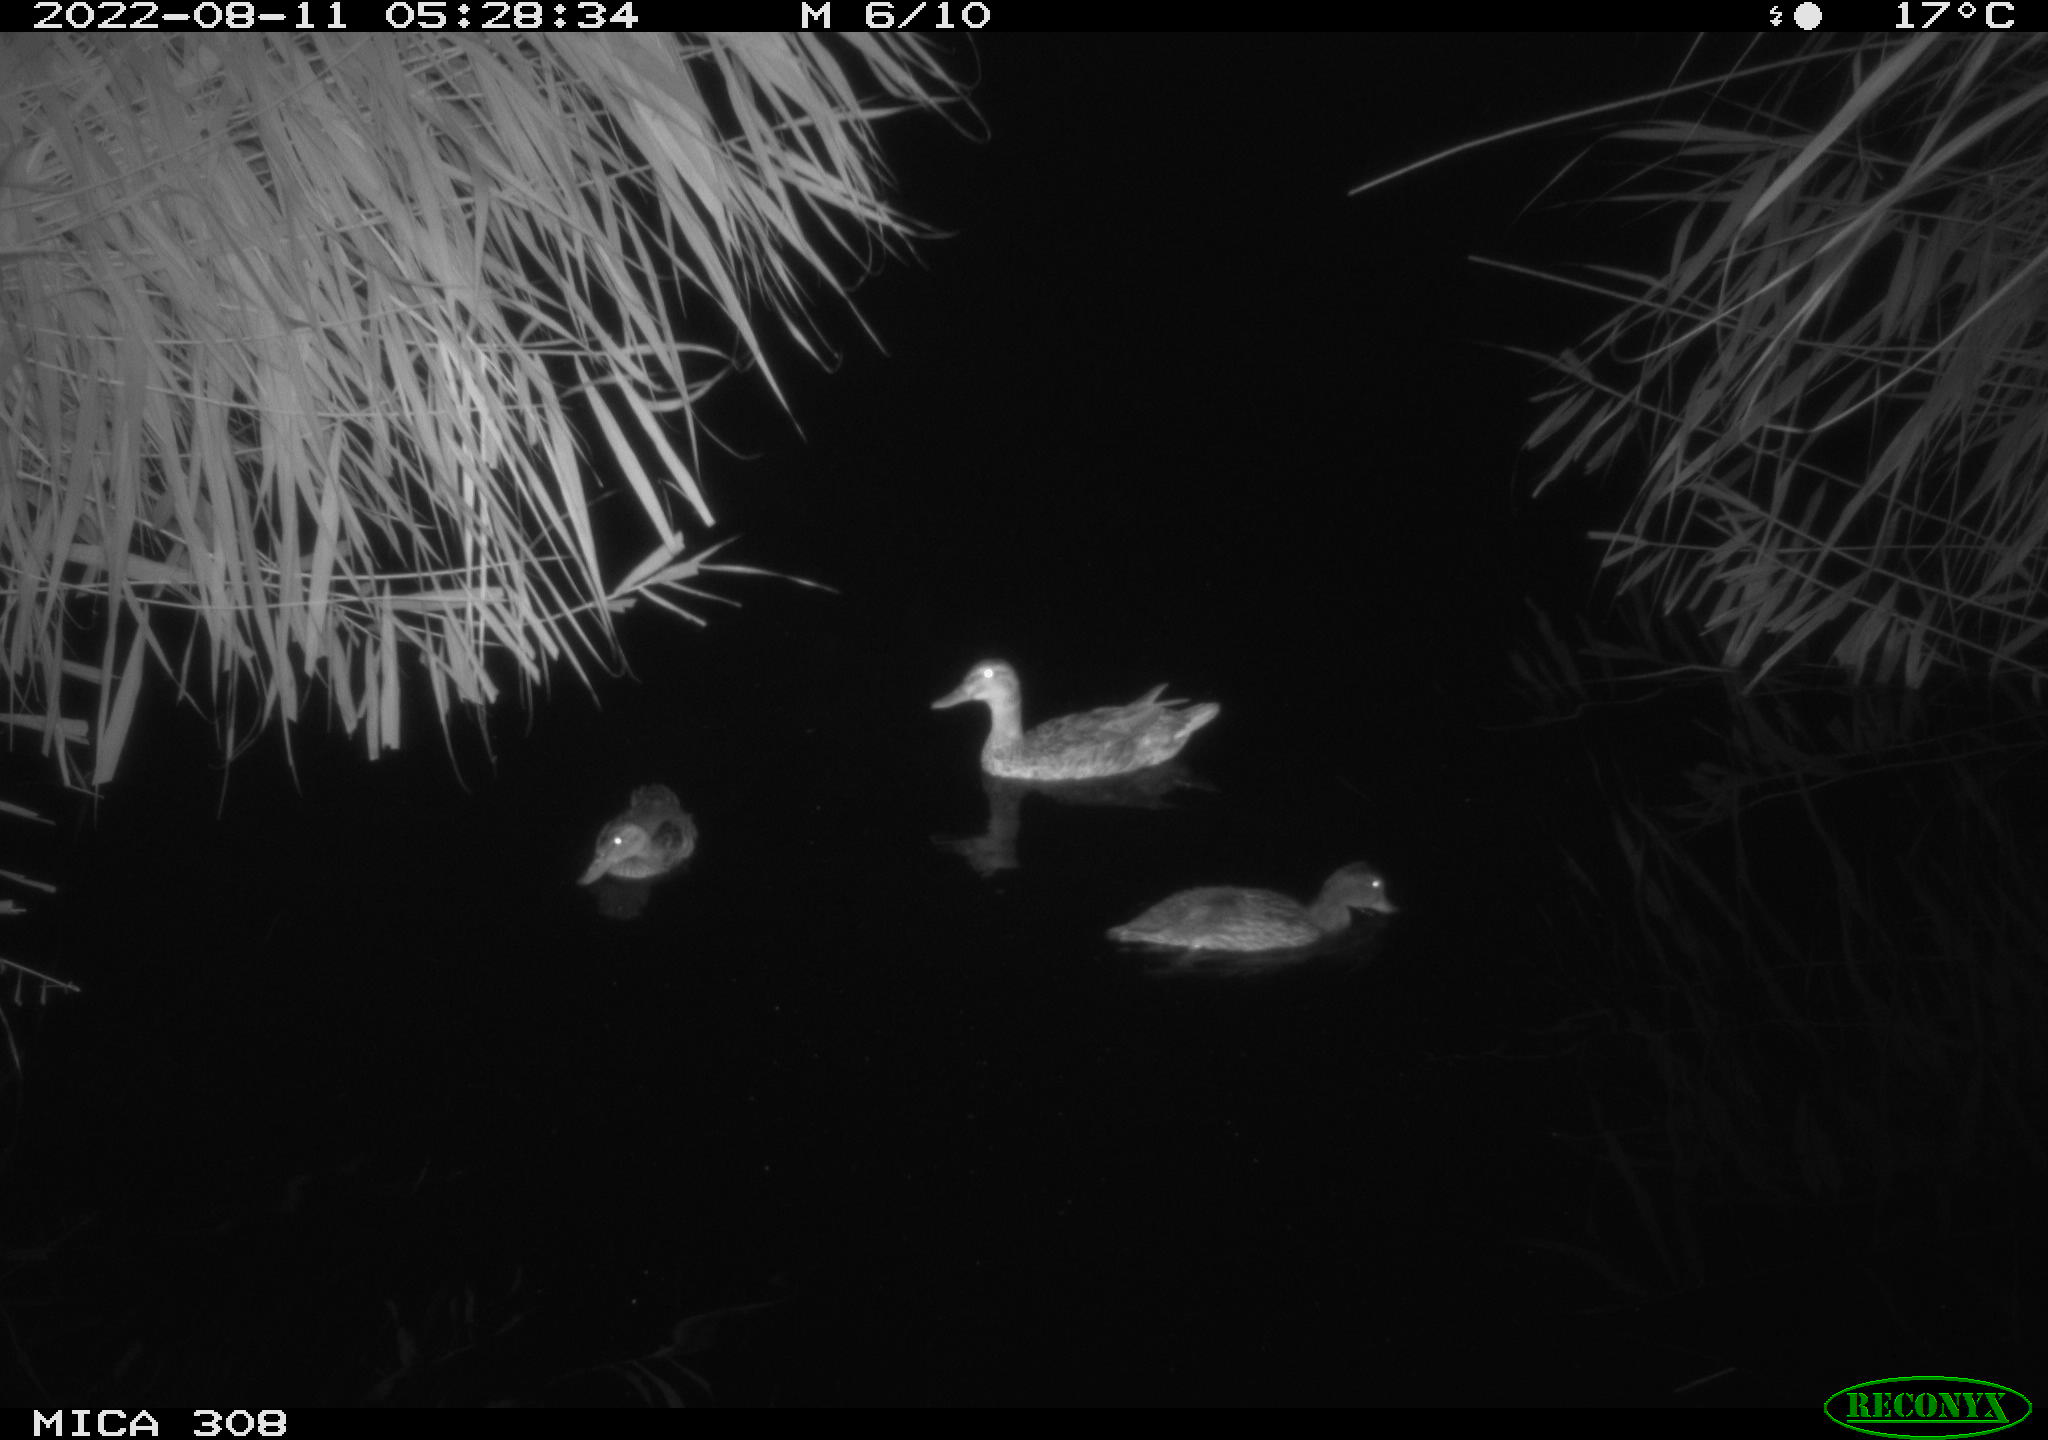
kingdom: Animalia
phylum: Chordata
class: Aves
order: Anseriformes
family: Anatidae
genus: Anas
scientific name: Anas platyrhynchos
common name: Mallard
